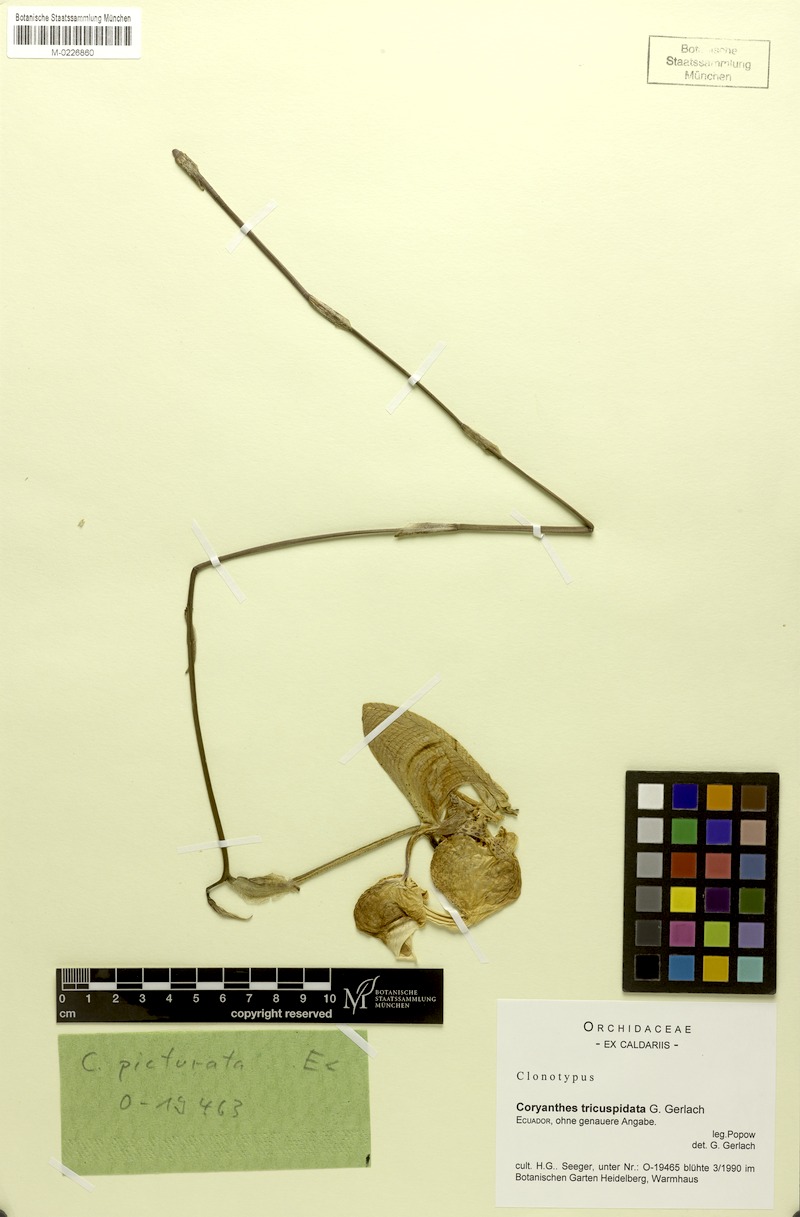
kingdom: Plantae
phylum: Tracheophyta
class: Liliopsida
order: Asparagales
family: Orchidaceae
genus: Coryanthes
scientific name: Coryanthes tricuspidata
